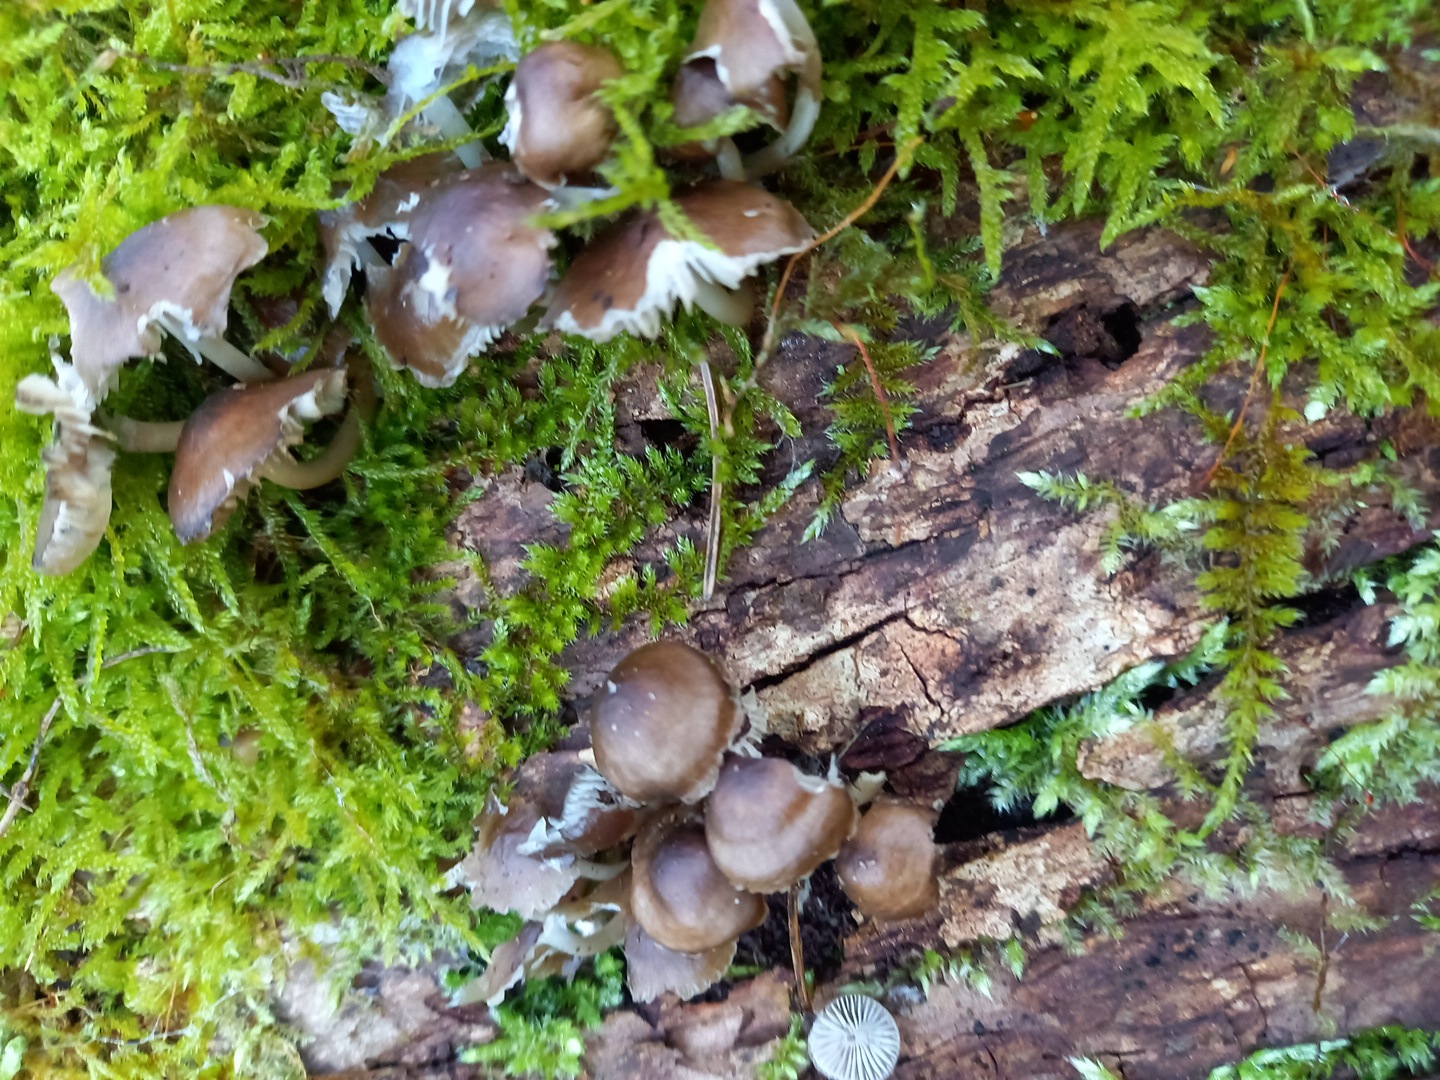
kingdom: Fungi
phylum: Basidiomycota
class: Agaricomycetes
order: Agaricales
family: Mycenaceae
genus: Mycena
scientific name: Mycena tintinnabulum
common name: vinter-huesvamp
